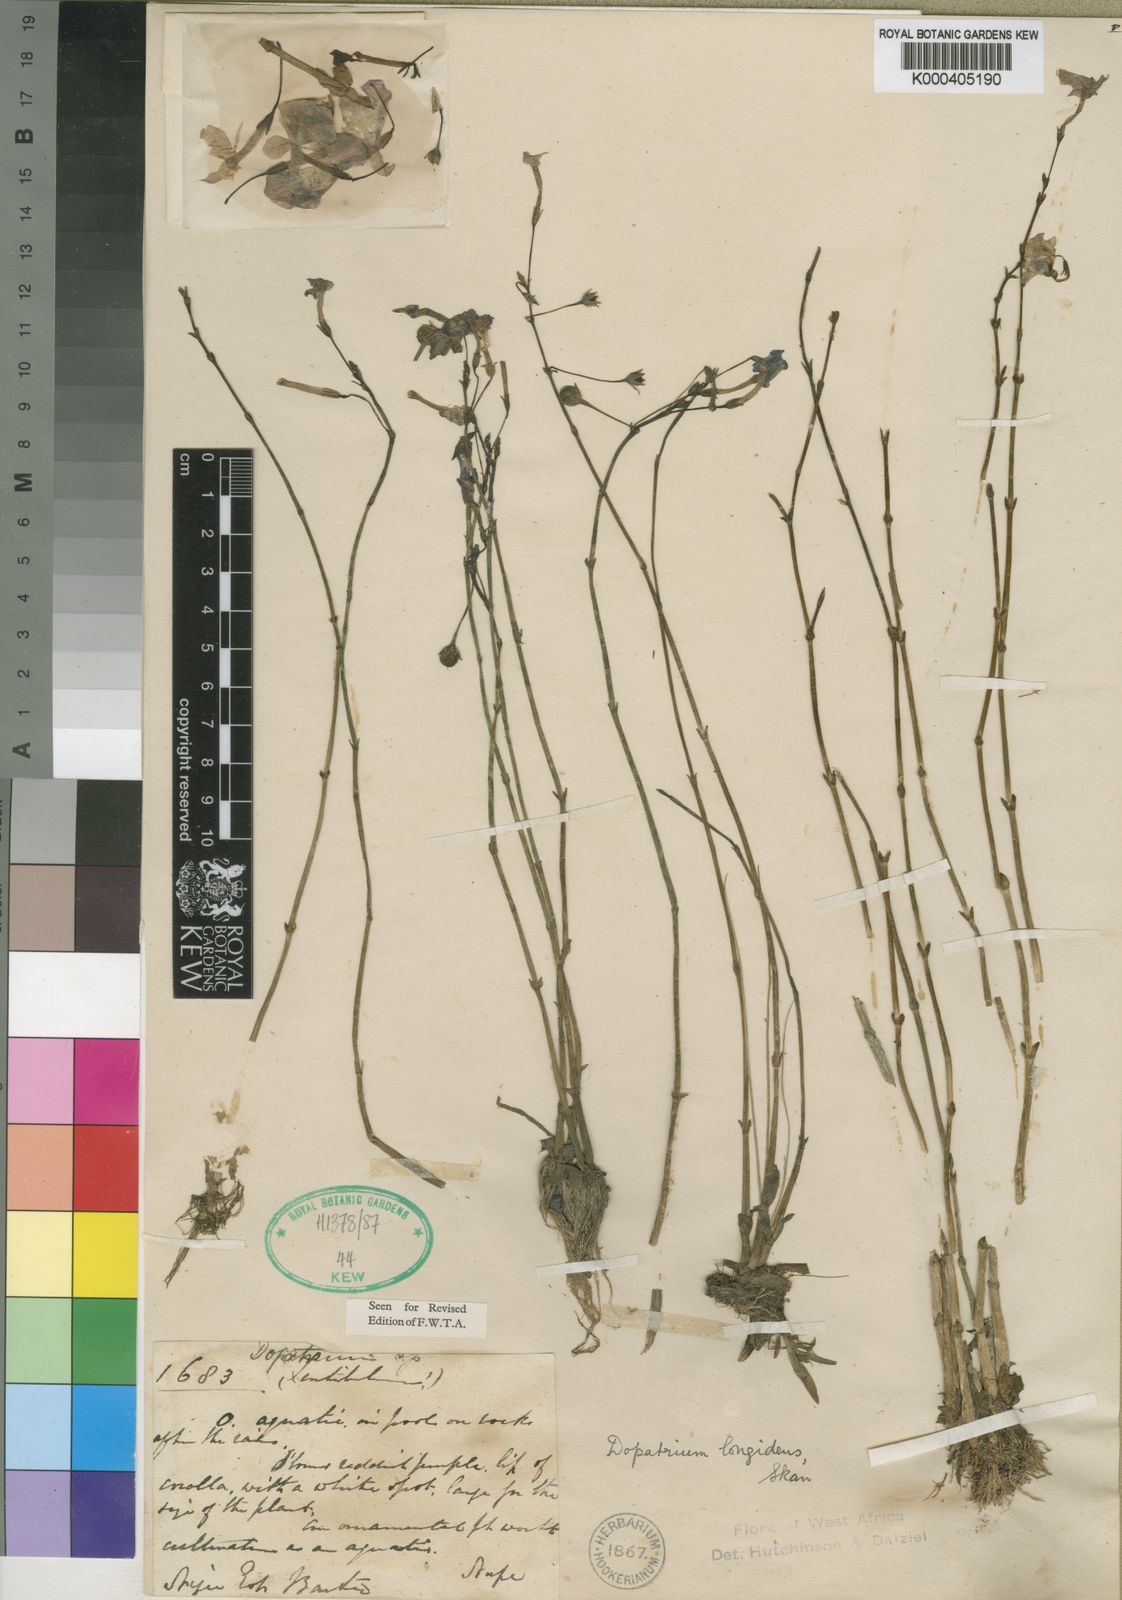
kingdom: Plantae
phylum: Tracheophyta
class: Magnoliopsida
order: Lamiales
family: Plantaginaceae
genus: Dopatrium
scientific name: Dopatrium longidens
